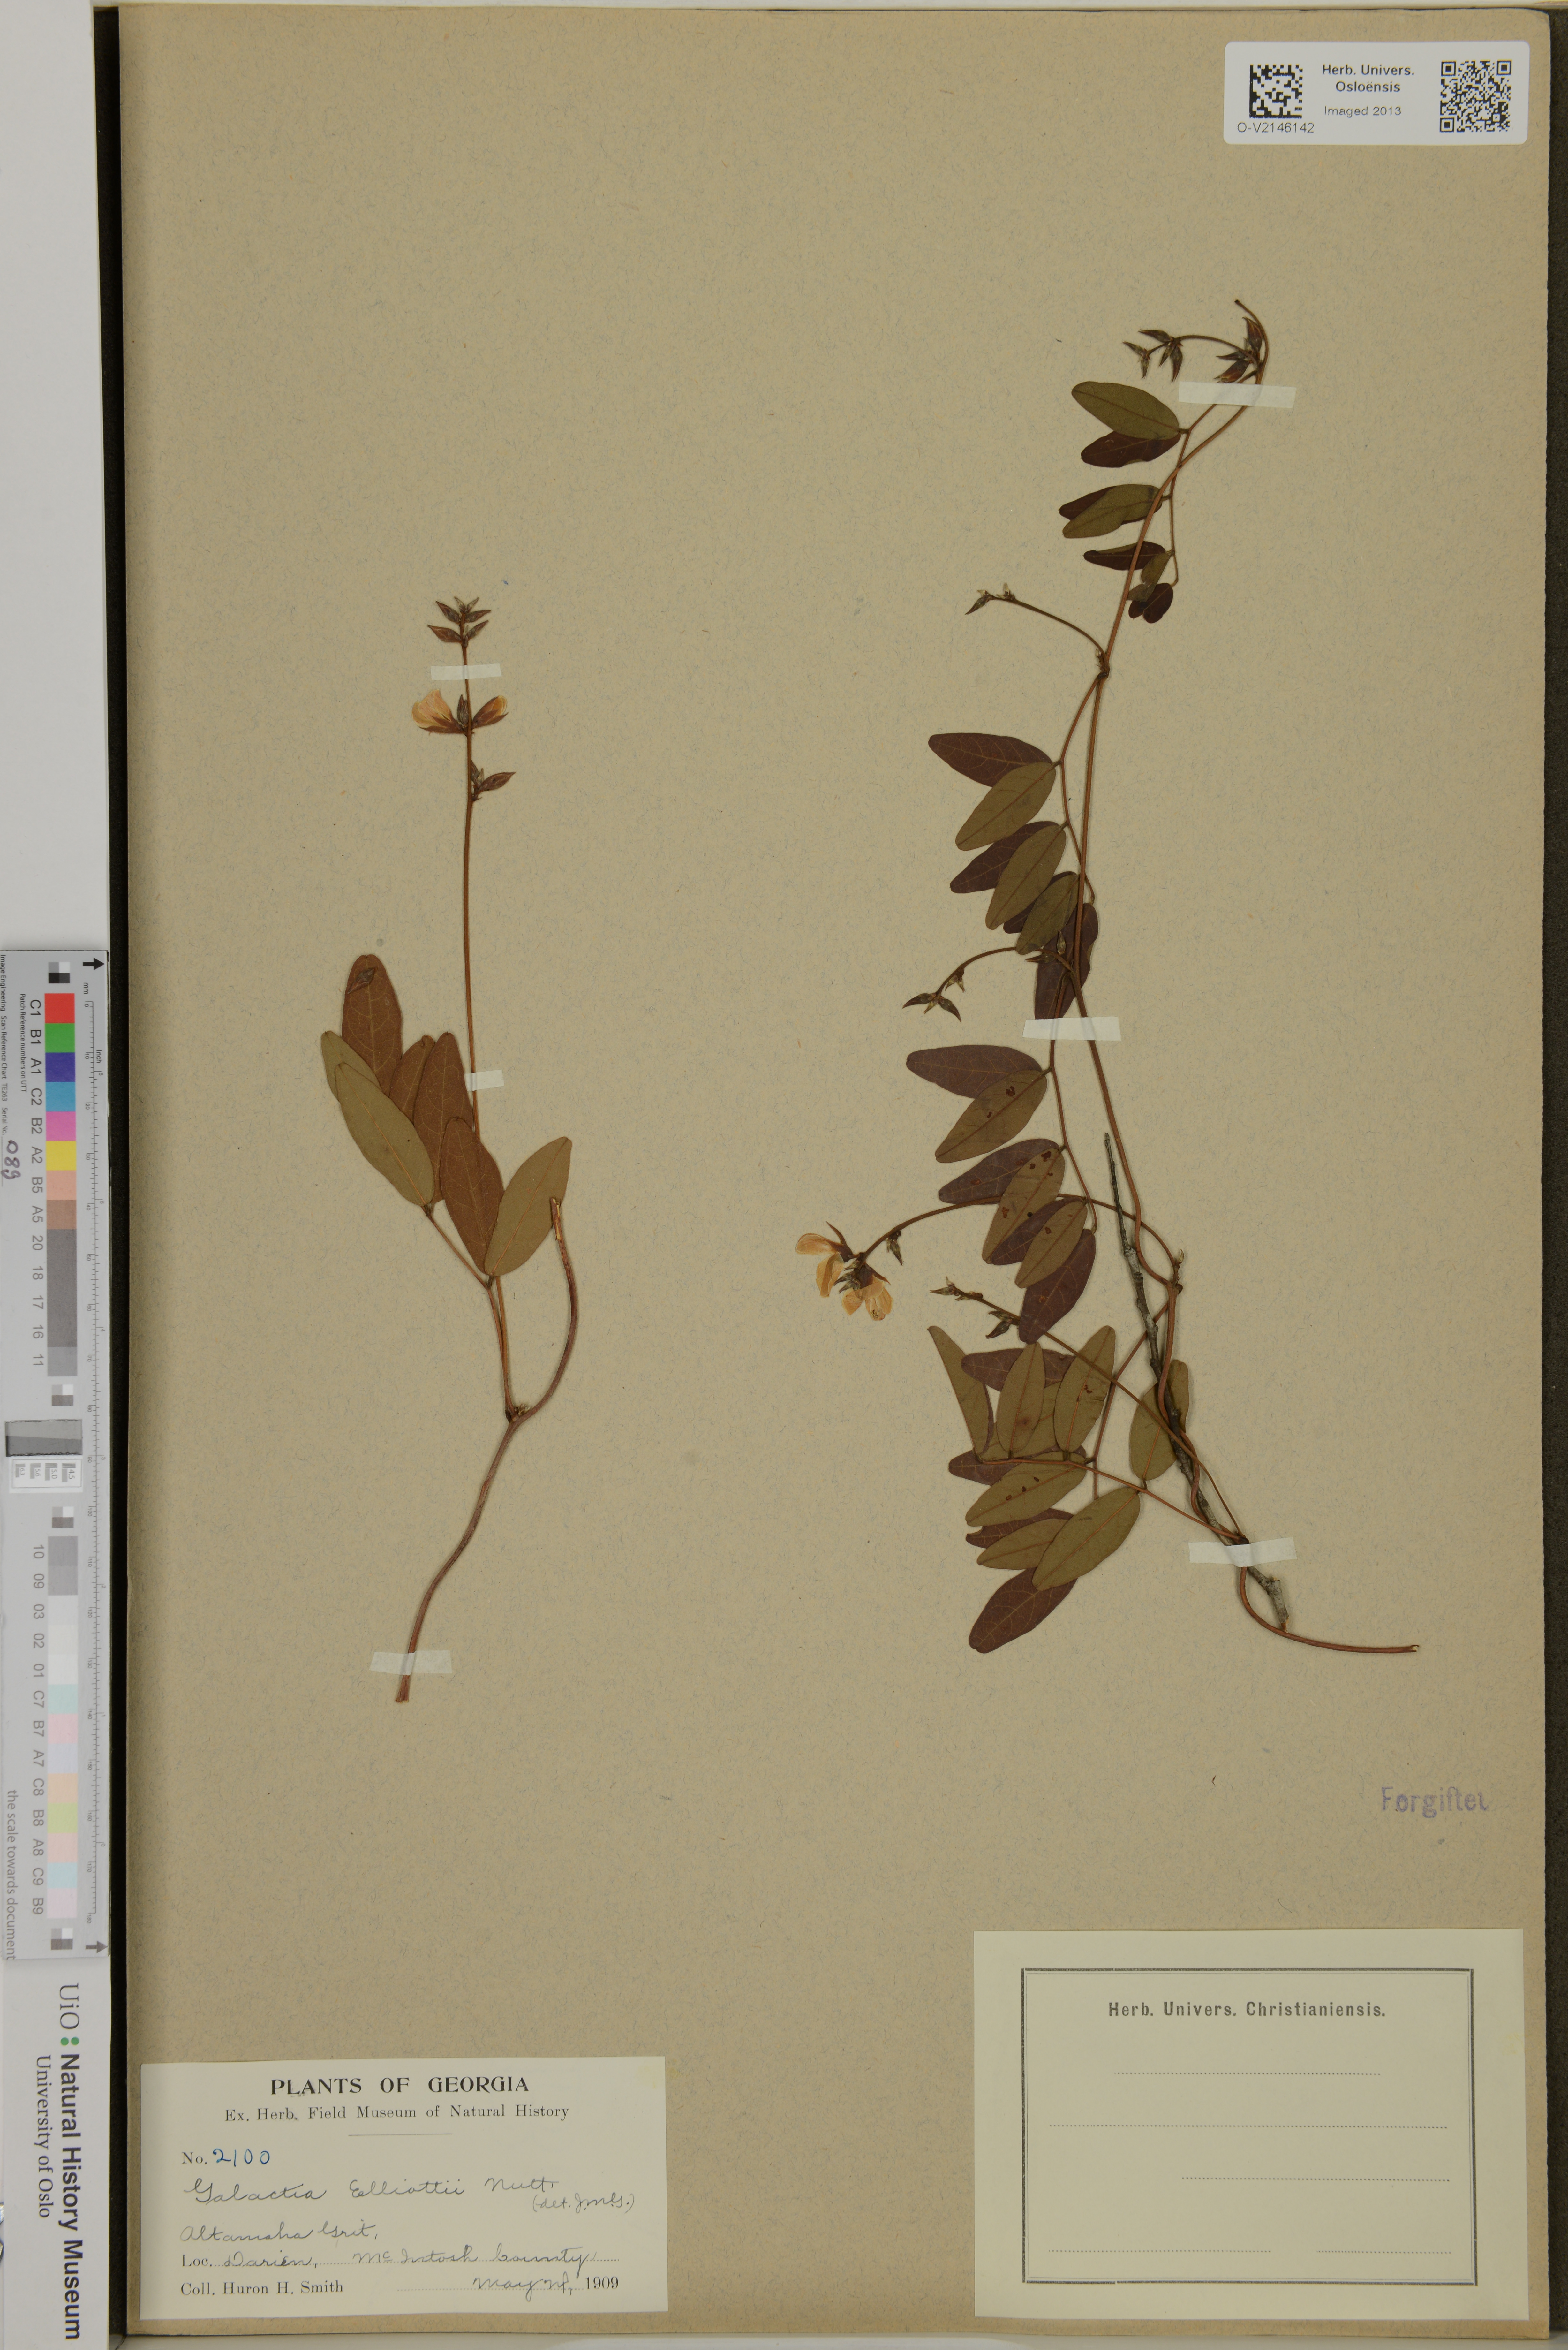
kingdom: Plantae
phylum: Tracheophyta
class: Magnoliopsida
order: Fabales
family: Fabaceae
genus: Galactia
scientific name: Galactia elliottii
